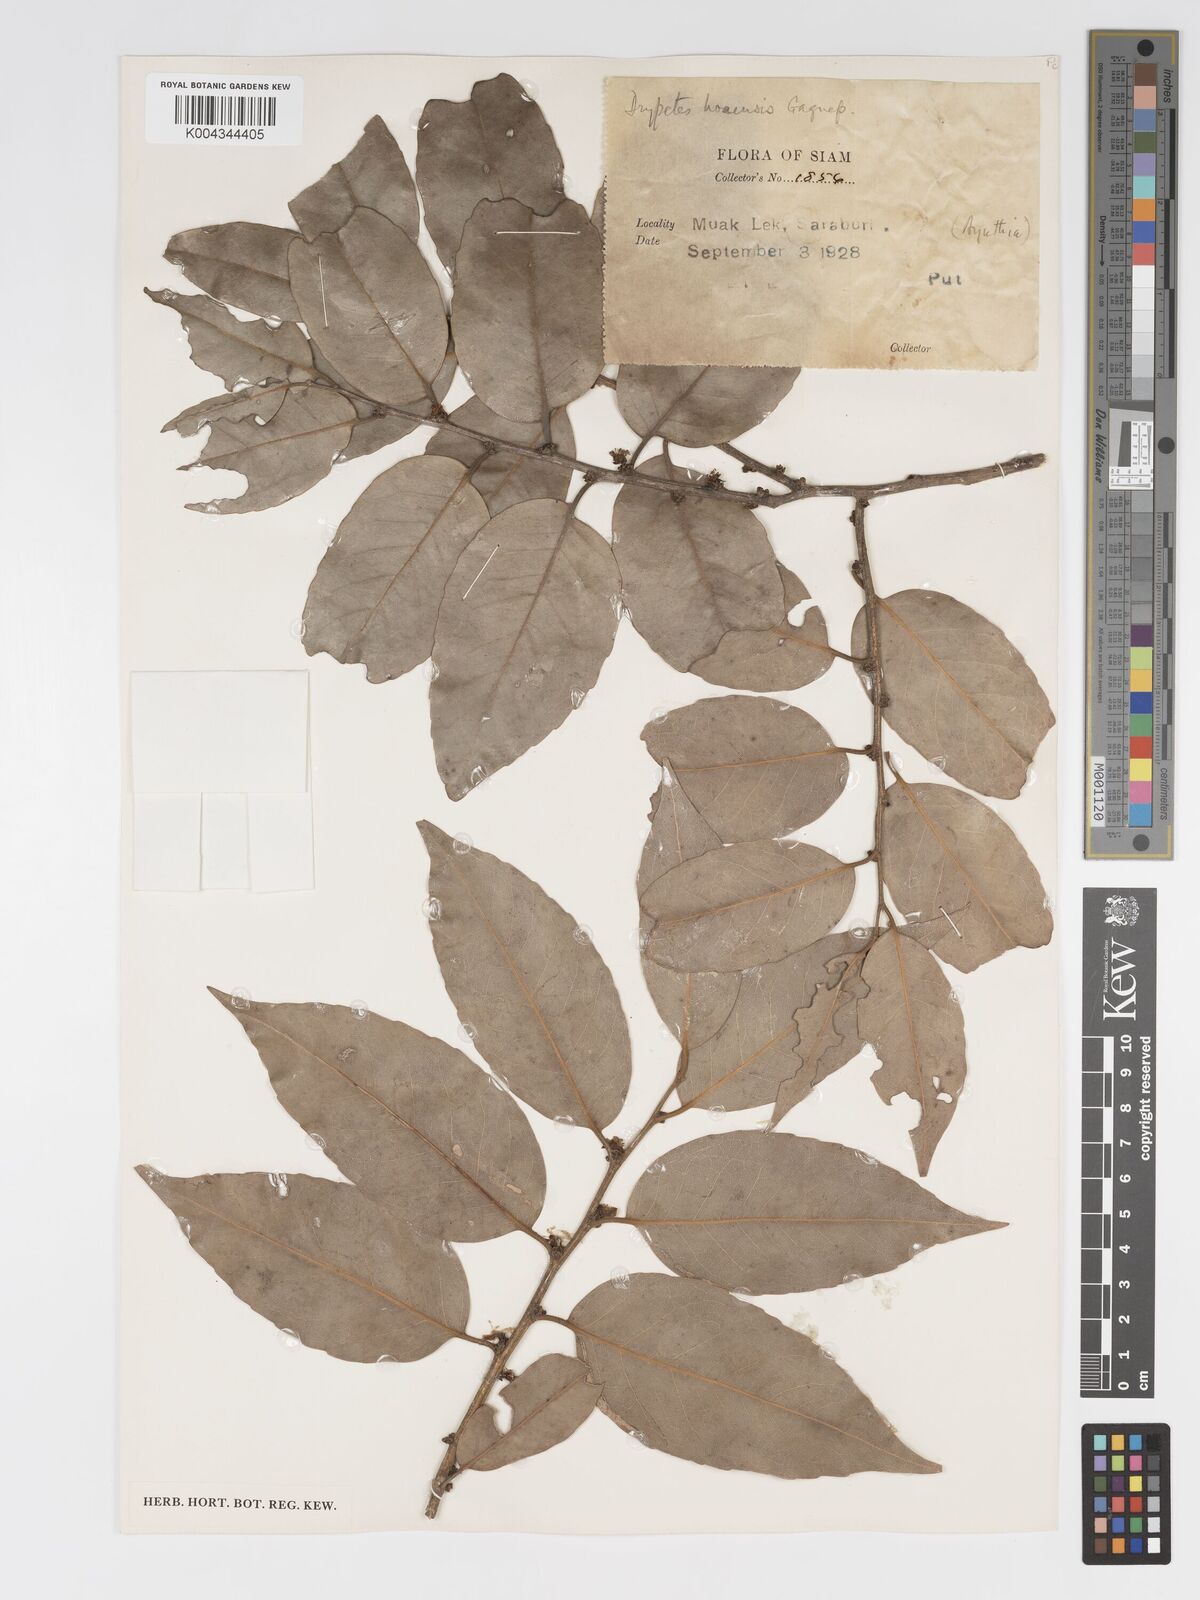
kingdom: Plantae
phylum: Tracheophyta
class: Magnoliopsida
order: Malpighiales
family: Putranjivaceae
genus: Drypetes
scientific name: Drypetes hoaensis
